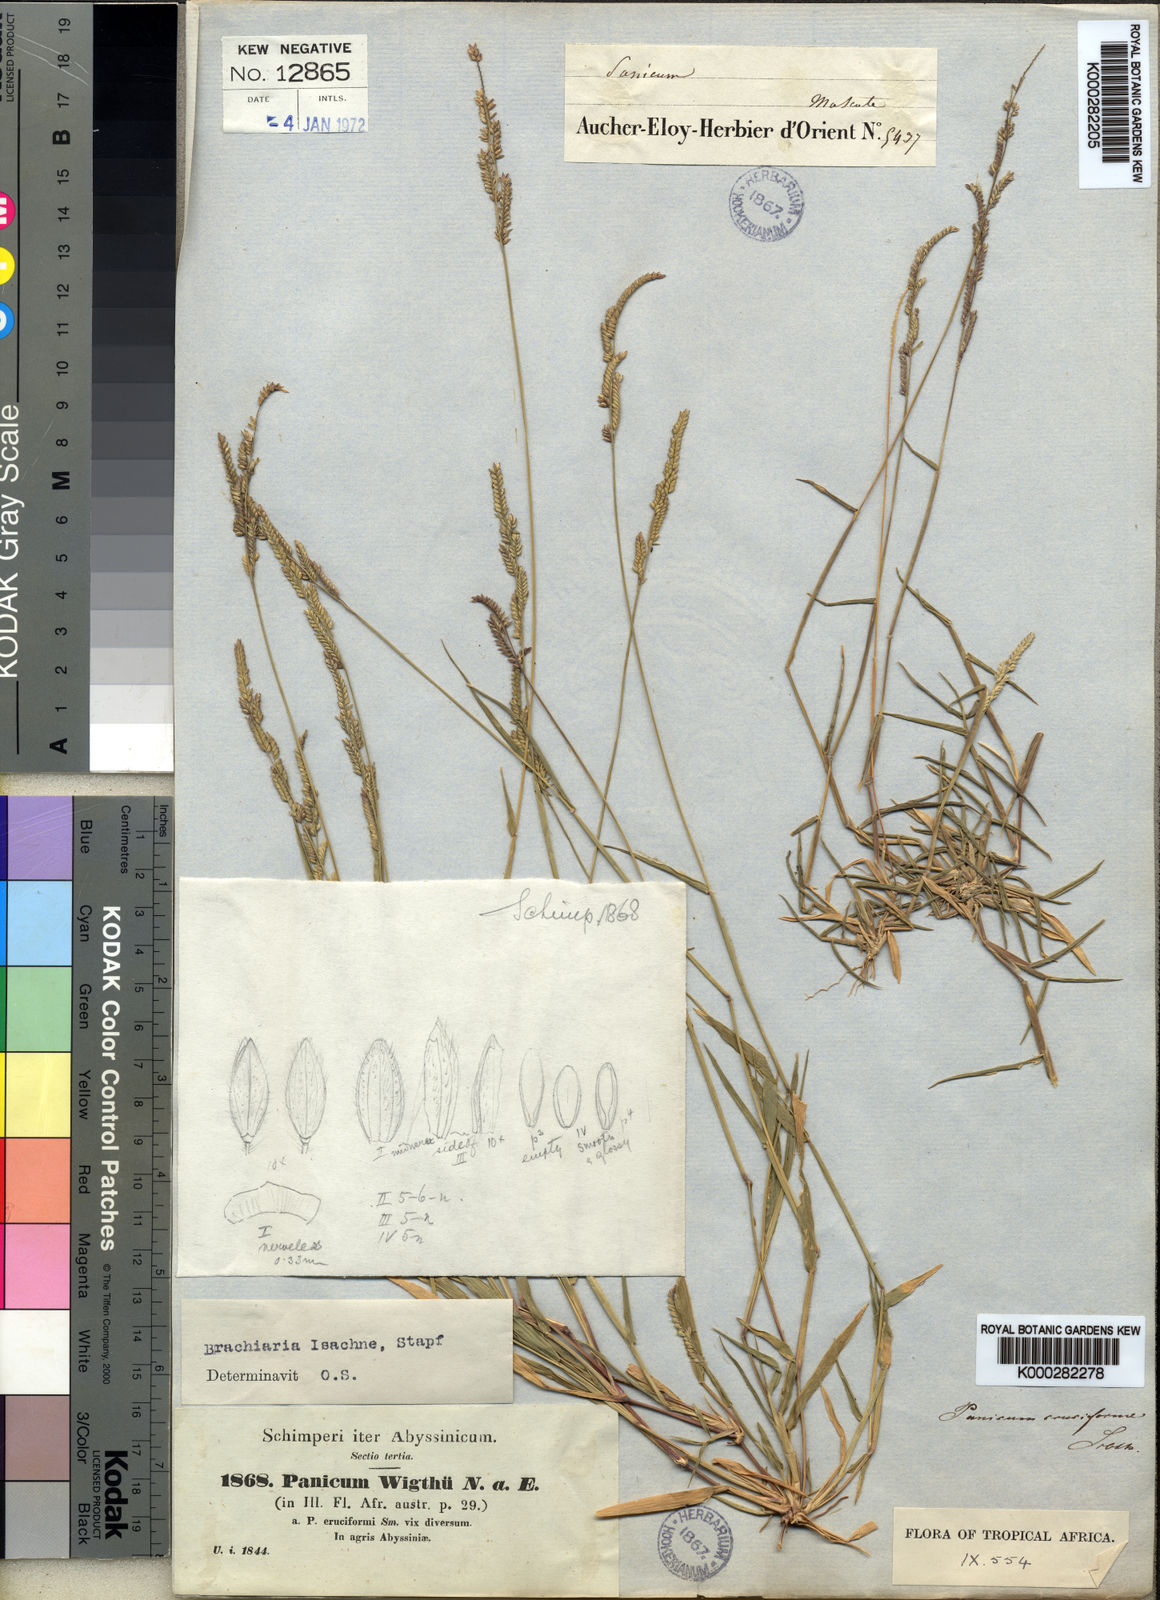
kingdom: Plantae
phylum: Tracheophyta
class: Liliopsida
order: Poales
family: Poaceae
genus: Moorochloa
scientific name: Moorochloa eruciformis
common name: Sweet signalgrass
